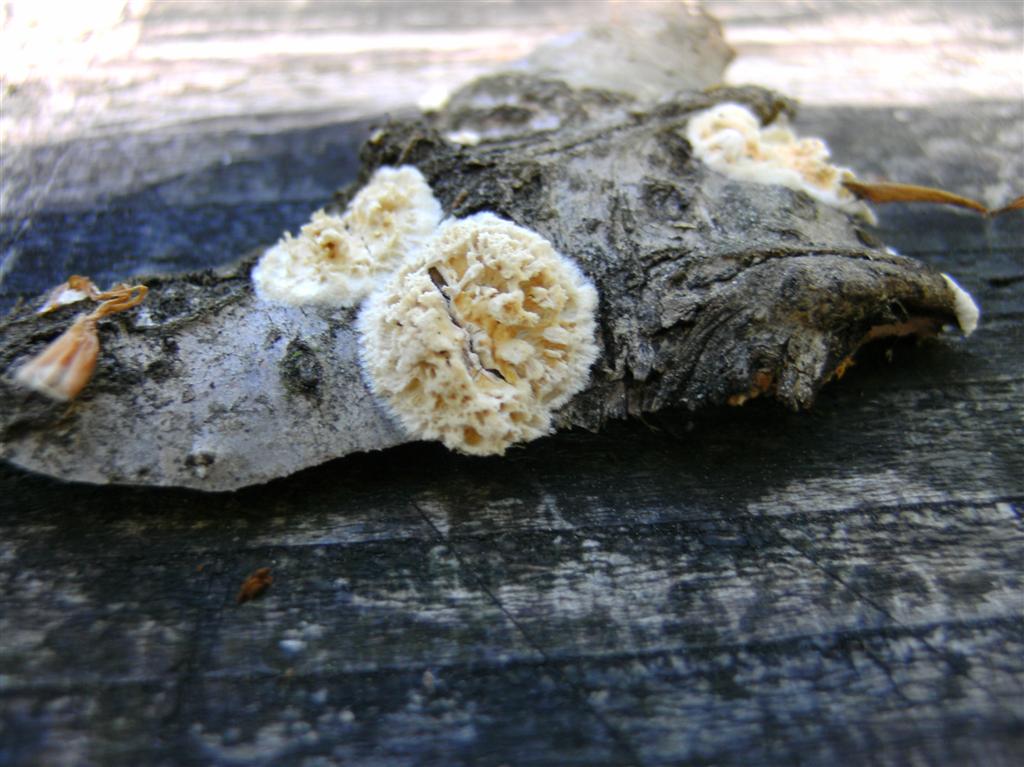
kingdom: Fungi
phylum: Basidiomycota
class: Agaricomycetes
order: Hymenochaetales
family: Schizoporaceae
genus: Xylodon
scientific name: Xylodon radula
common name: grovtandet kalkskind
